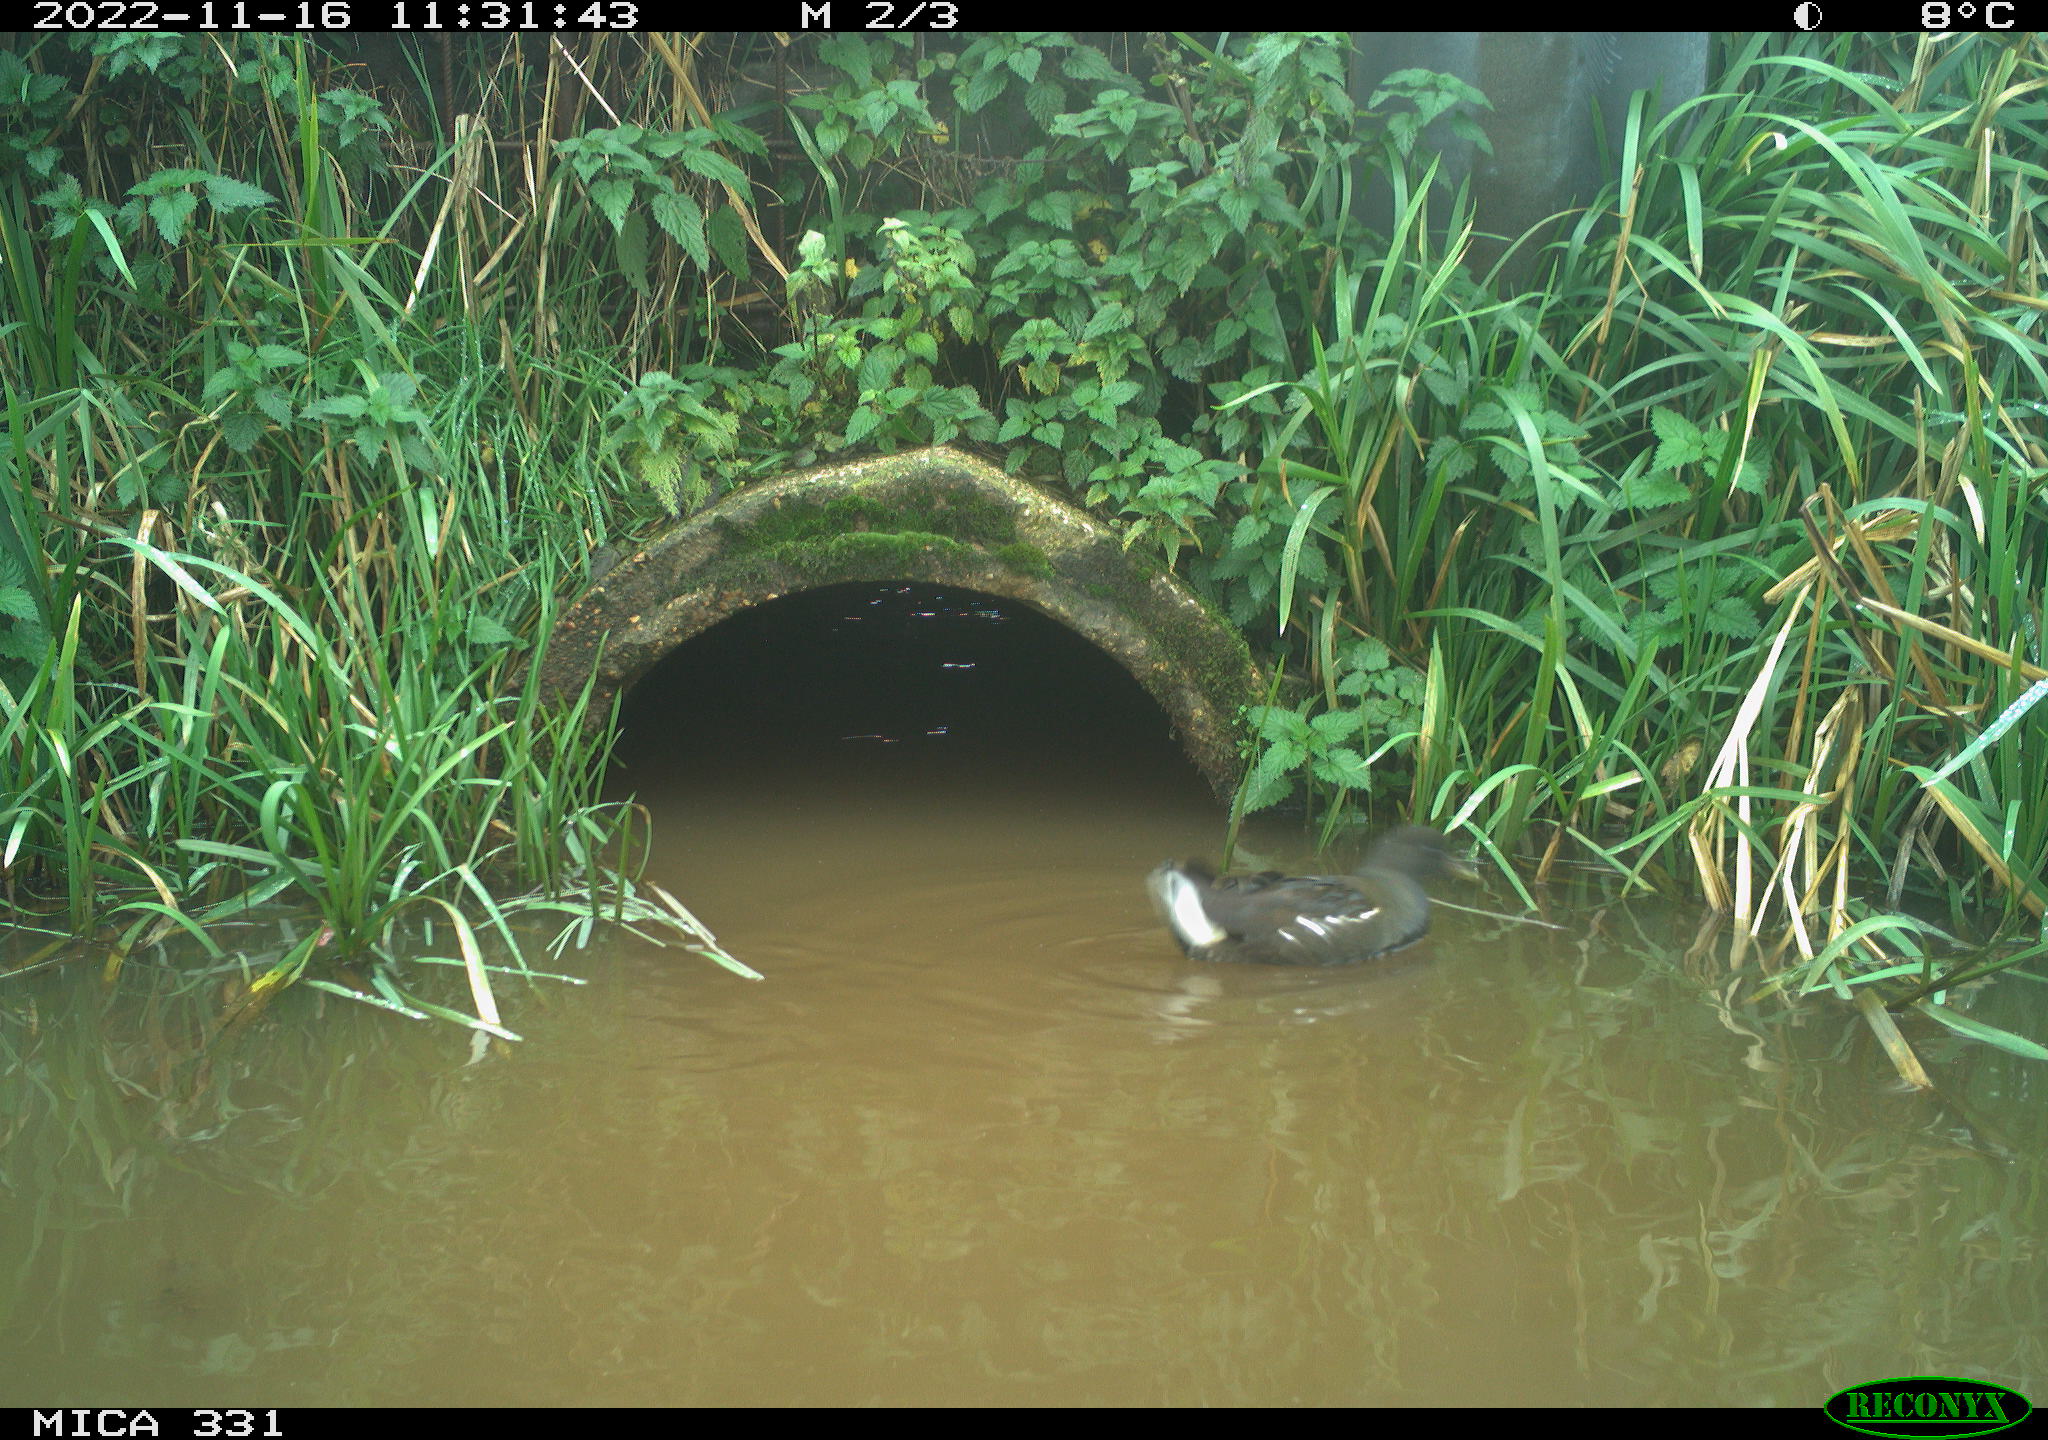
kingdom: Animalia
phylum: Chordata
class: Aves
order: Gruiformes
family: Rallidae
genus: Gallinula
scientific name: Gallinula chloropus
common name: Common moorhen
